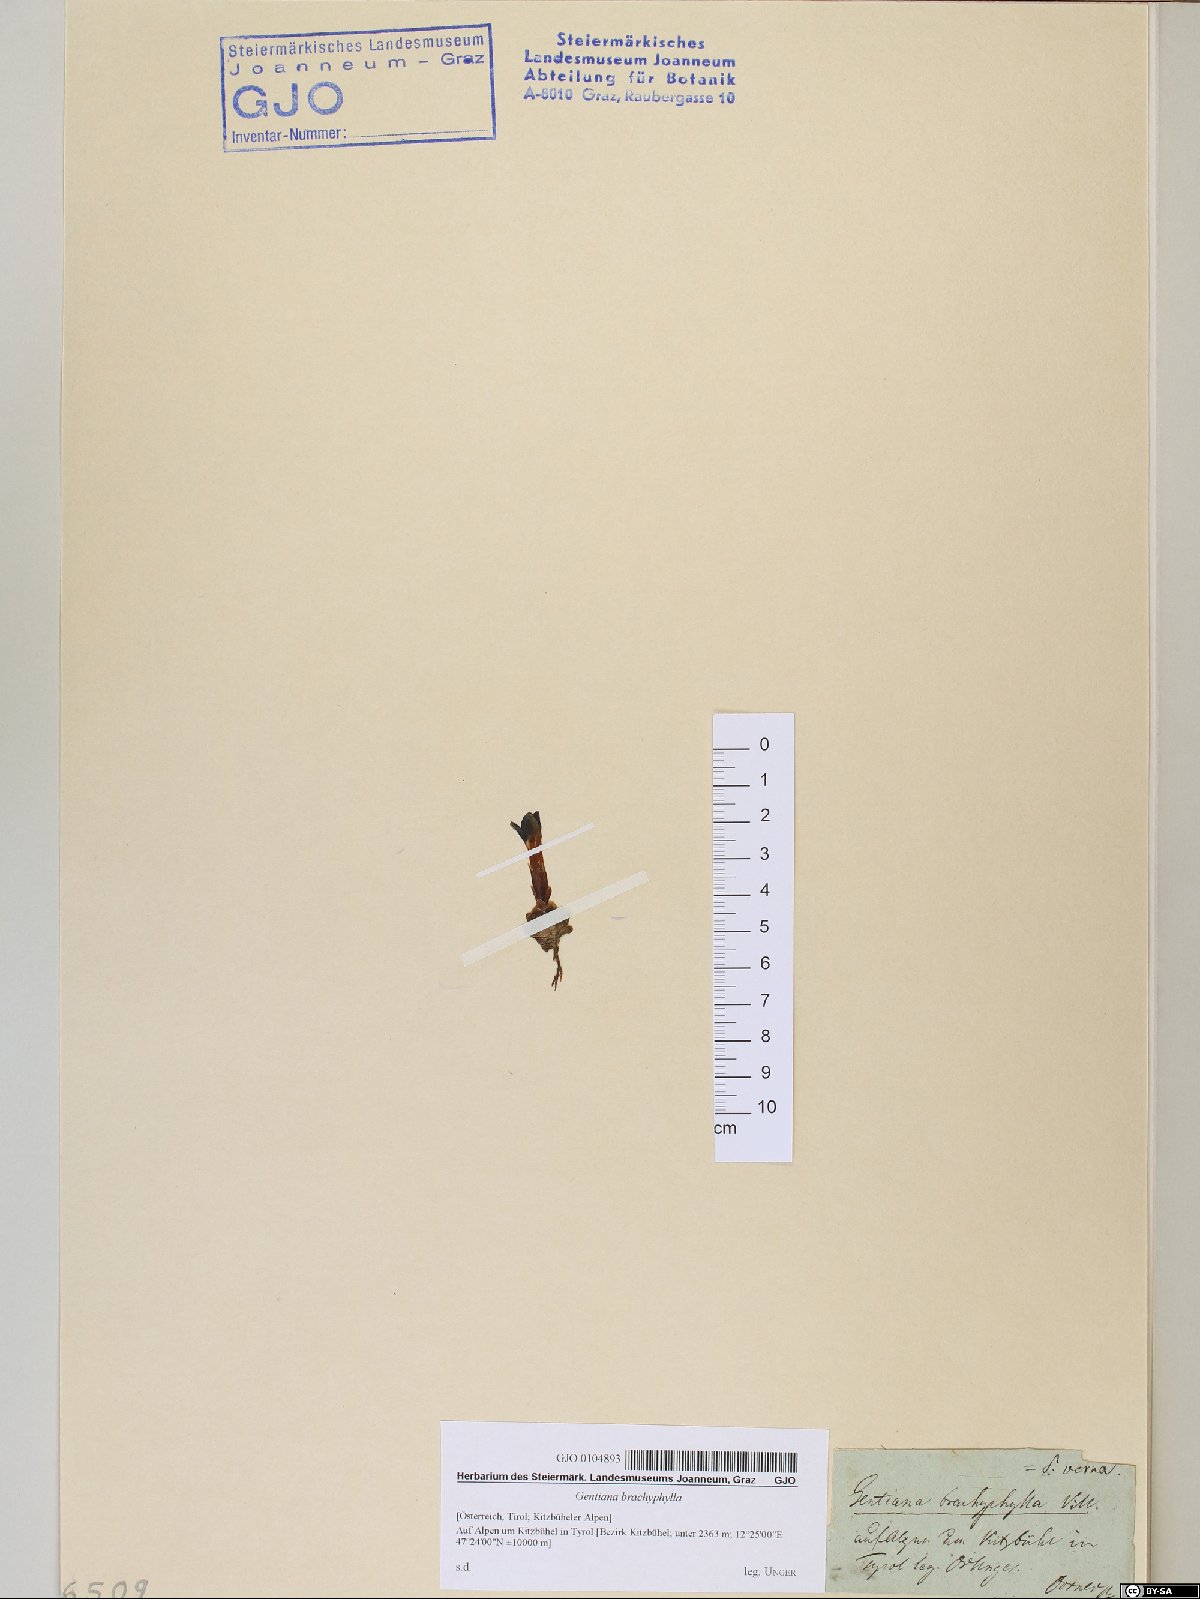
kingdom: Plantae
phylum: Tracheophyta
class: Magnoliopsida
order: Gentianales
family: Gentianaceae
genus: Gentiana
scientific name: Gentiana brachyphylla
